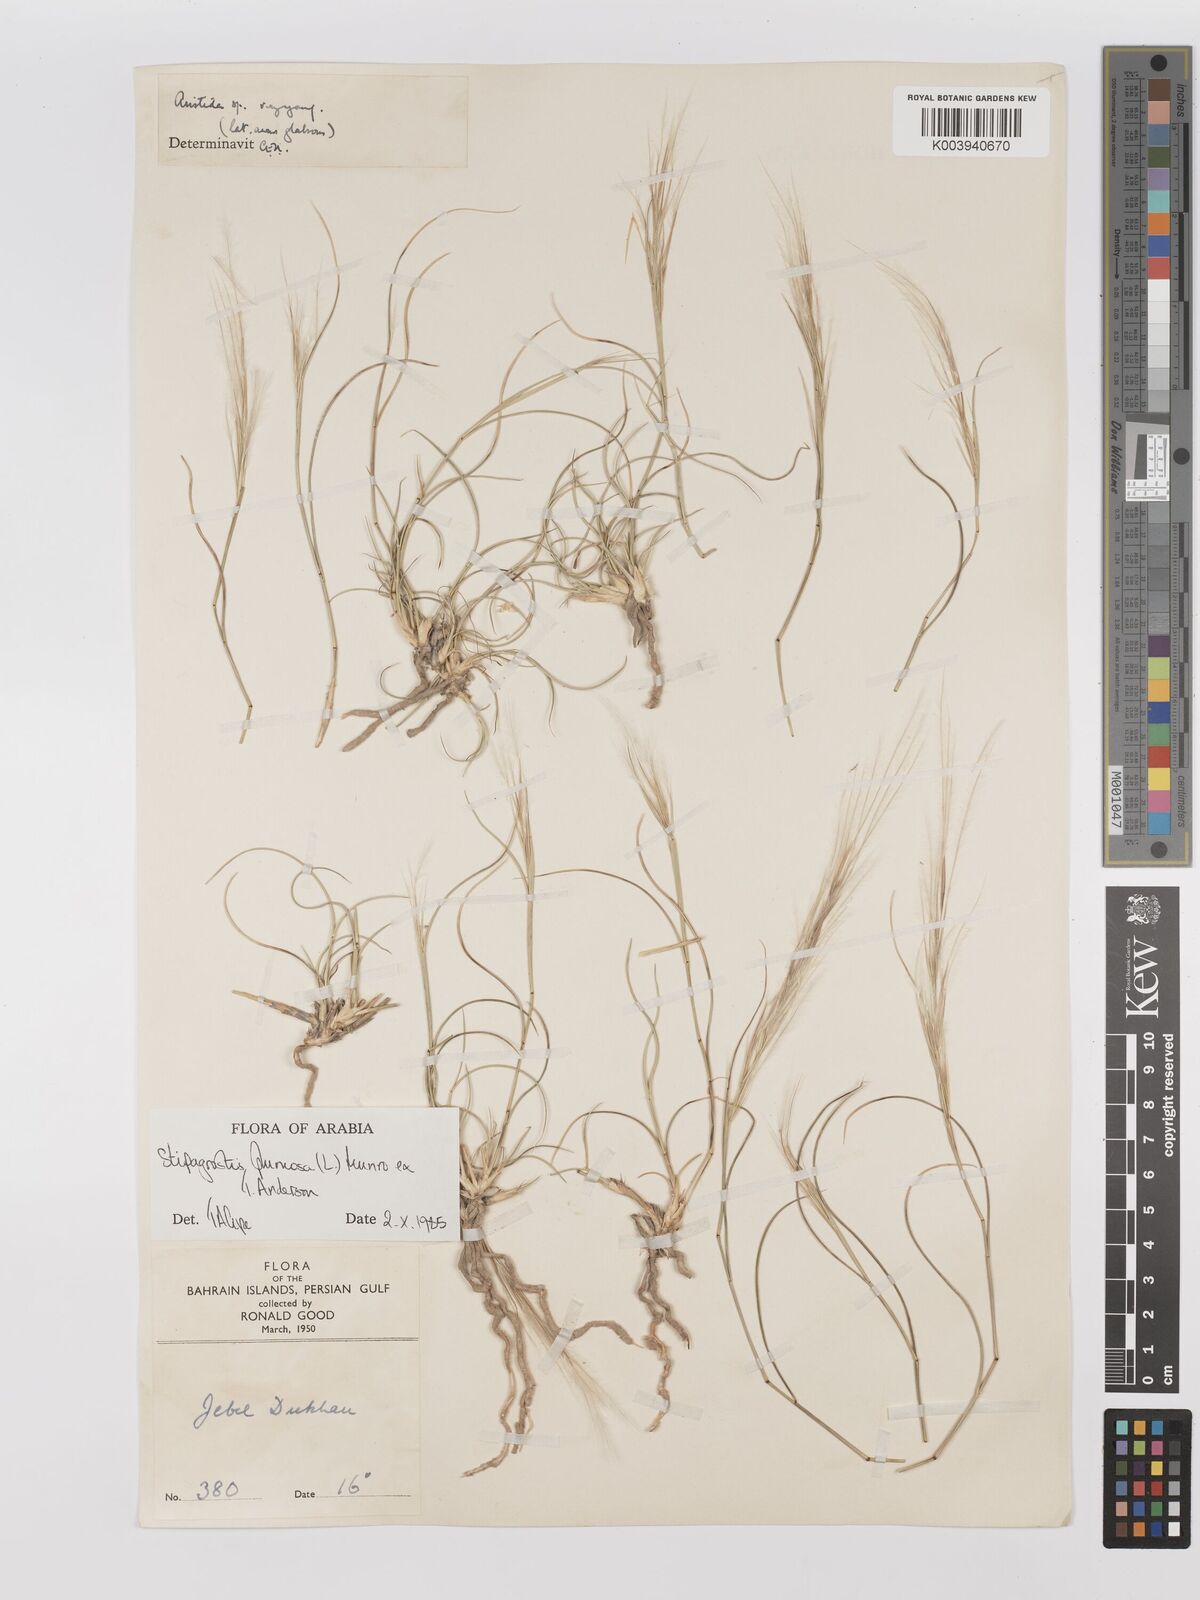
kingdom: Plantae
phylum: Tracheophyta
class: Liliopsida
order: Poales
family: Poaceae
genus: Stipagrostis
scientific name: Stipagrostis plumosa
